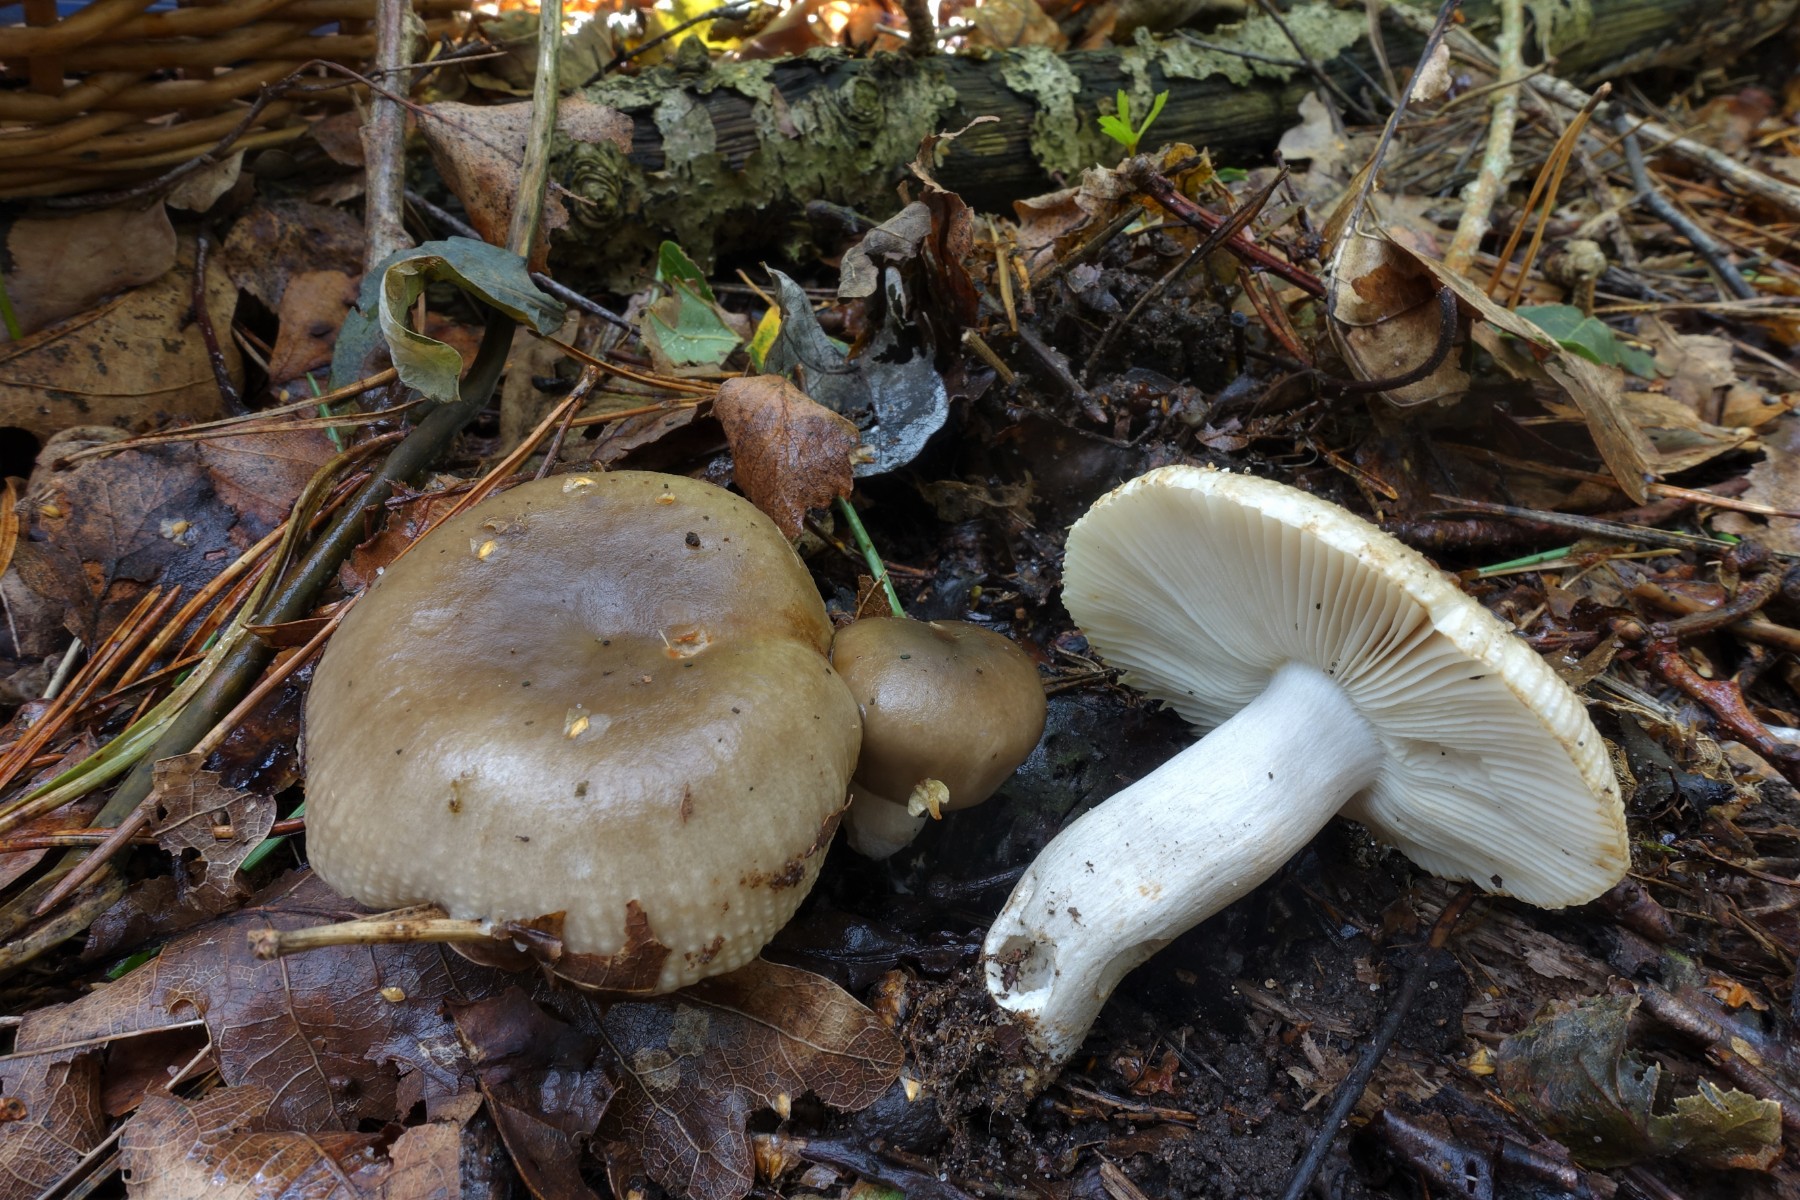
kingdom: Fungi
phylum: Basidiomycota
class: Agaricomycetes
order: Russulales
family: Russulaceae
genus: Russula
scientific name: Russula amoenolens
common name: skarp kam-skørhat
